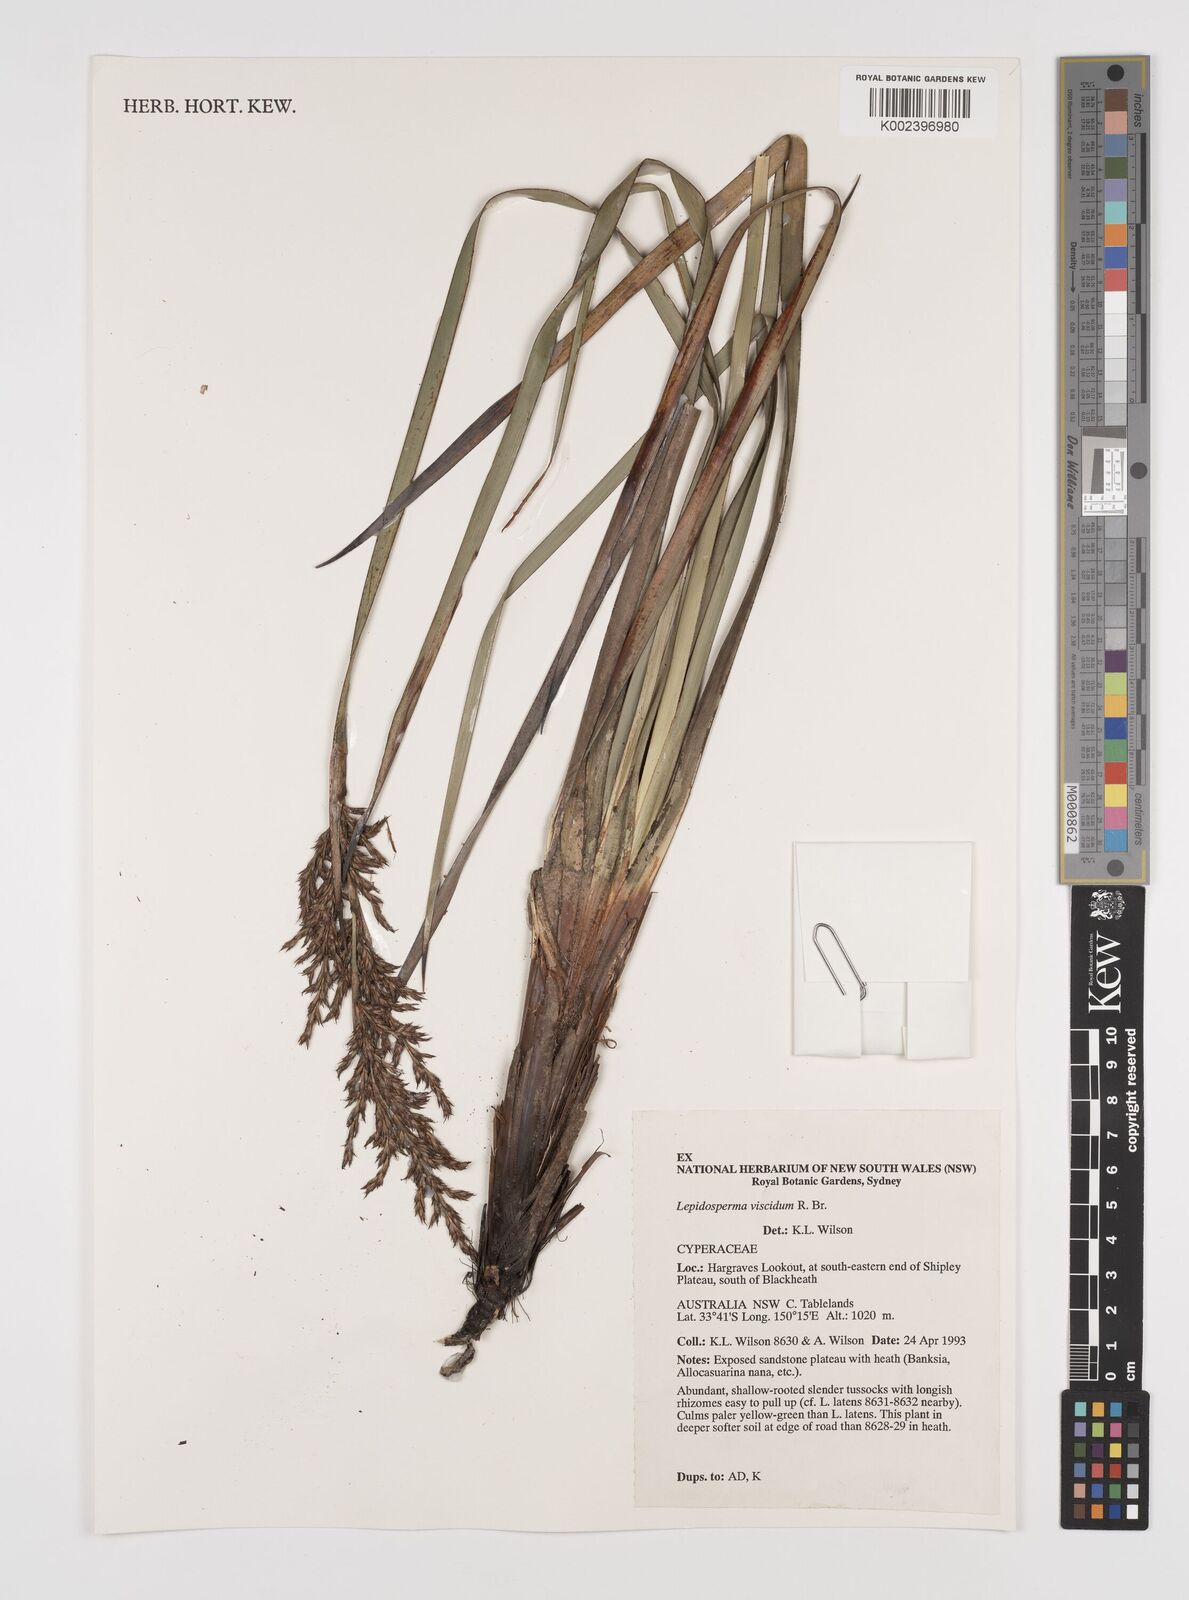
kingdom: Plantae
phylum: Tracheophyta
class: Liliopsida
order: Poales
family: Cyperaceae
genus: Lepidosperma
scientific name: Lepidosperma viscidum
